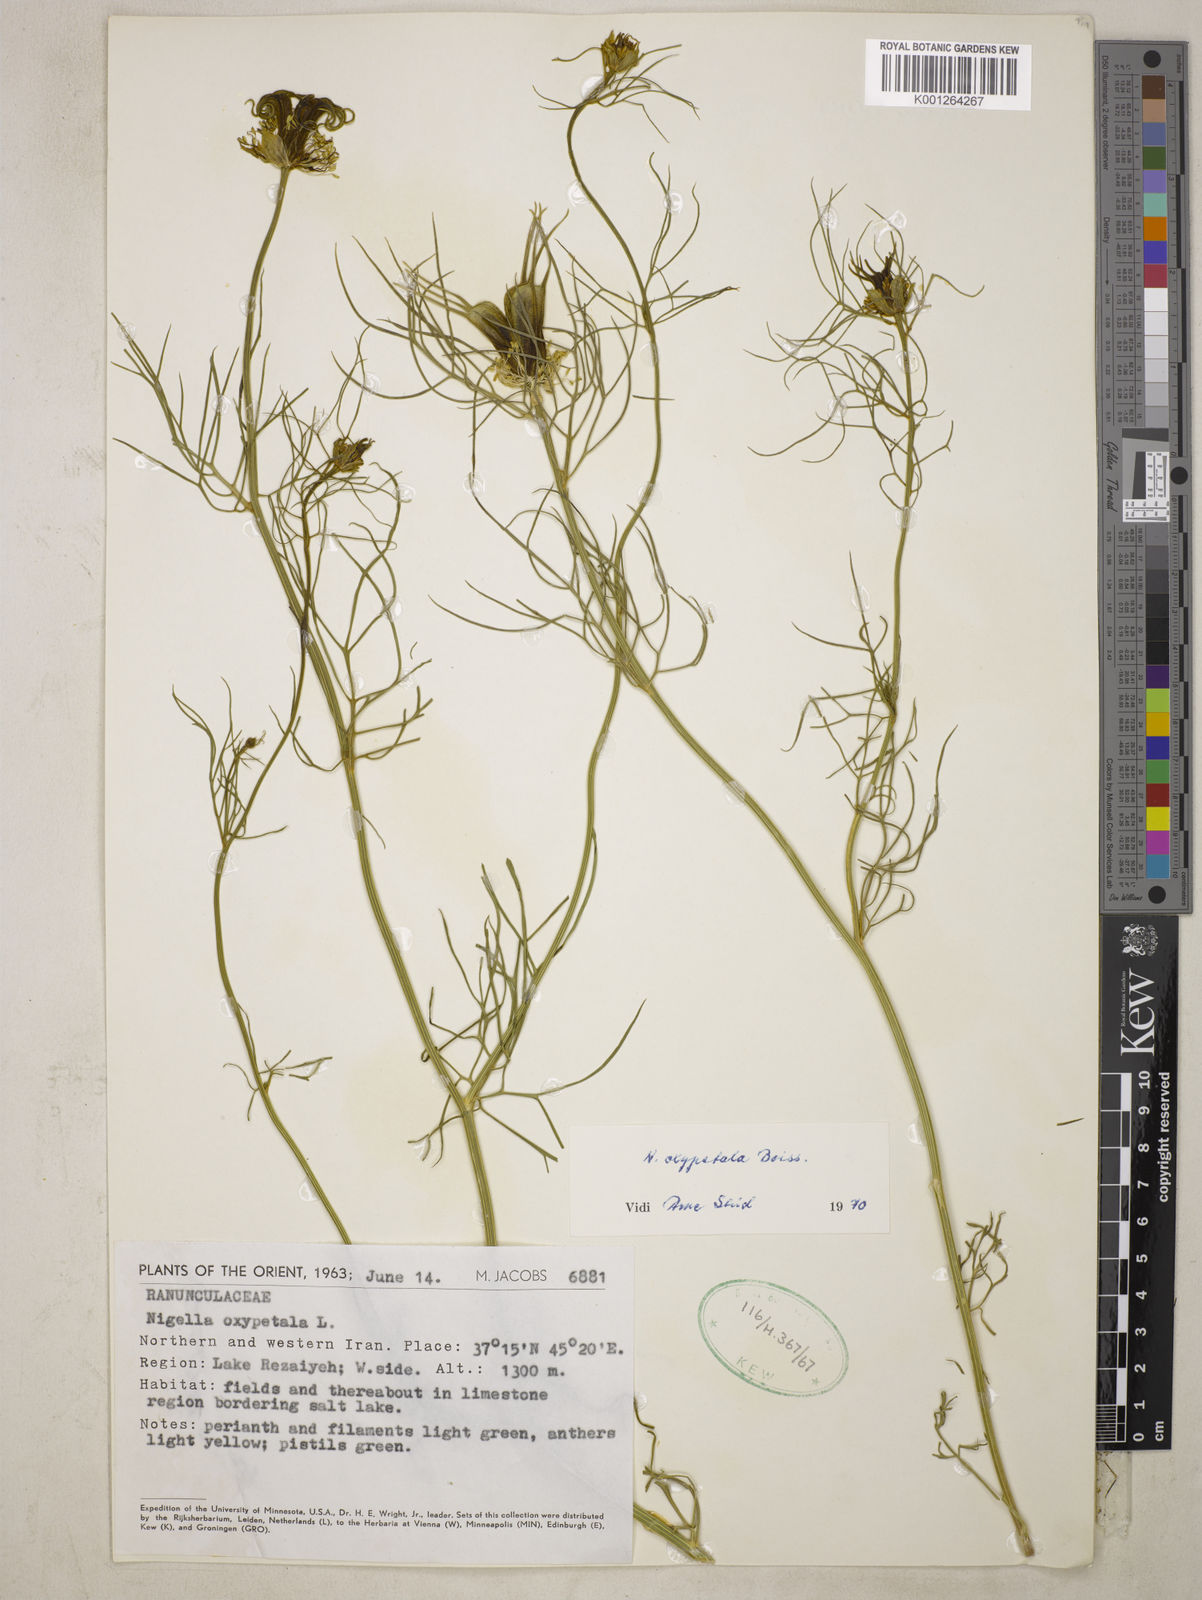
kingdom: Plantae
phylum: Tracheophyta
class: Magnoliopsida
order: Ranunculales
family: Ranunculaceae
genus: Nigella
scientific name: Nigella oxypetala
